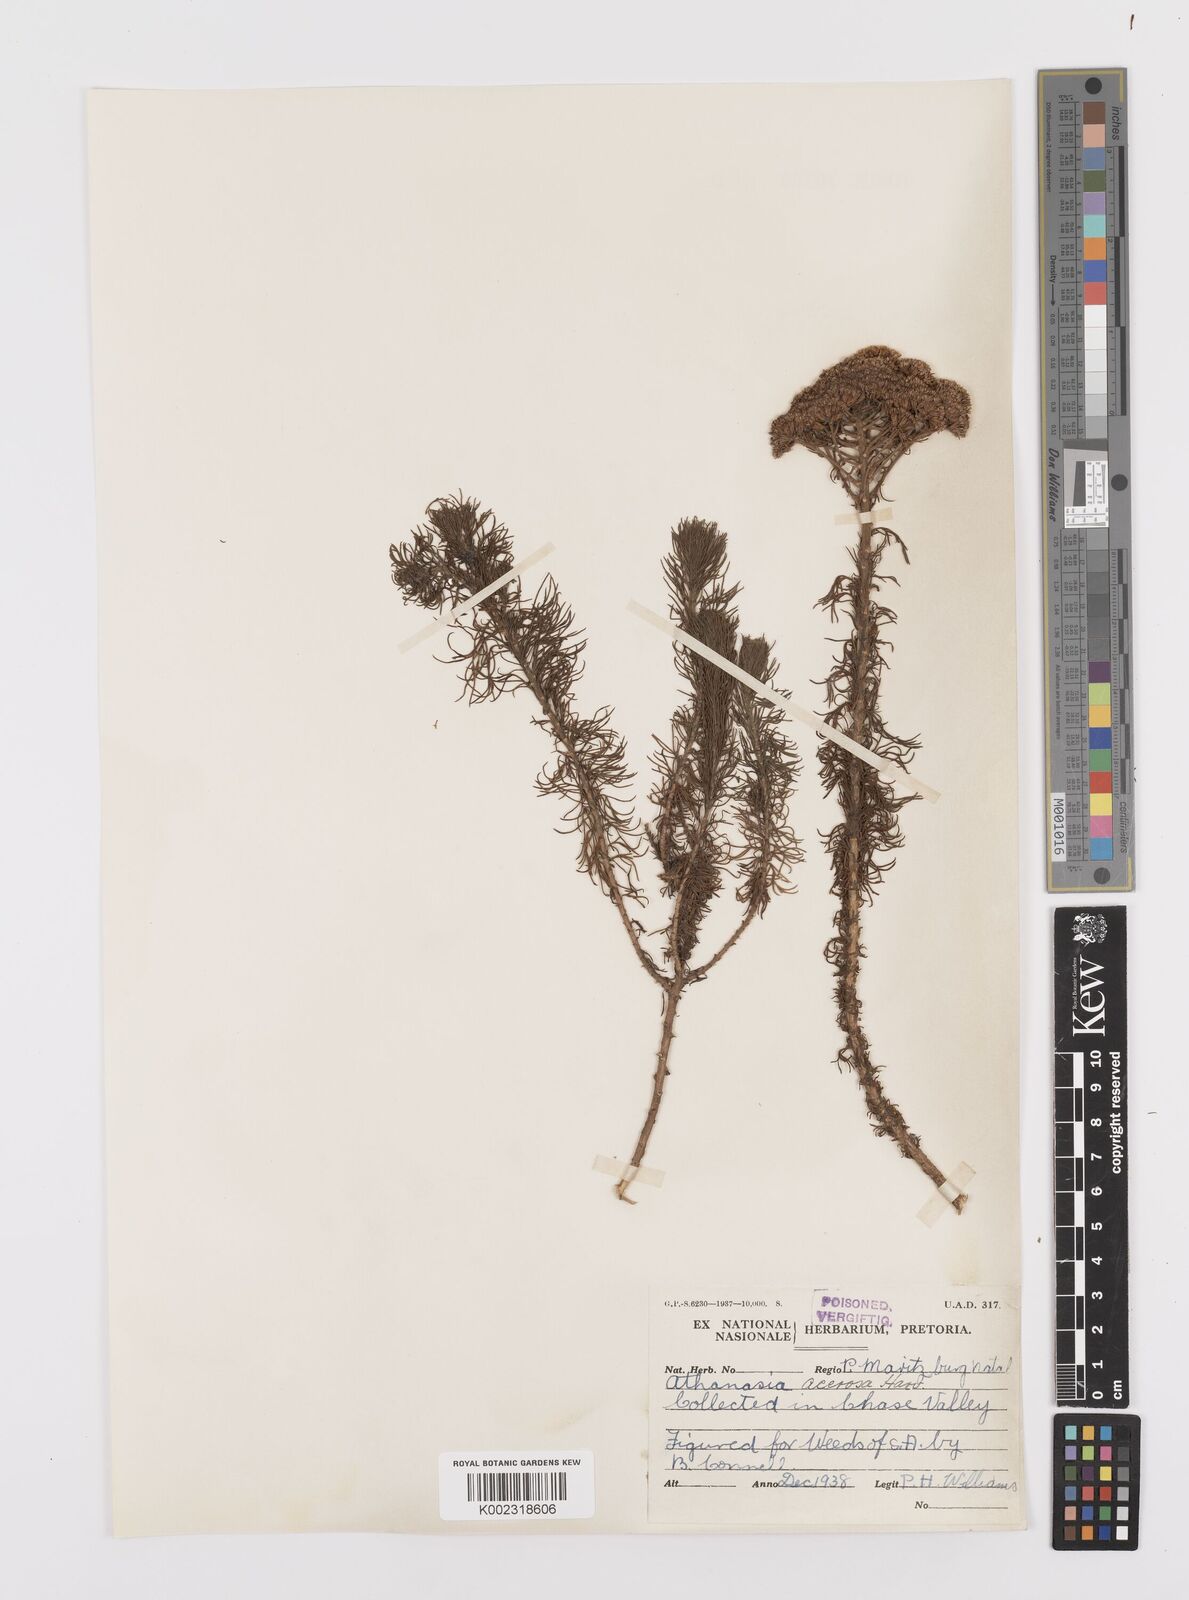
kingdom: Plantae
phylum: Tracheophyta
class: Magnoliopsida
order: Asterales
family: Asteraceae
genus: Phymaspermum
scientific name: Phymaspermum acerosum
